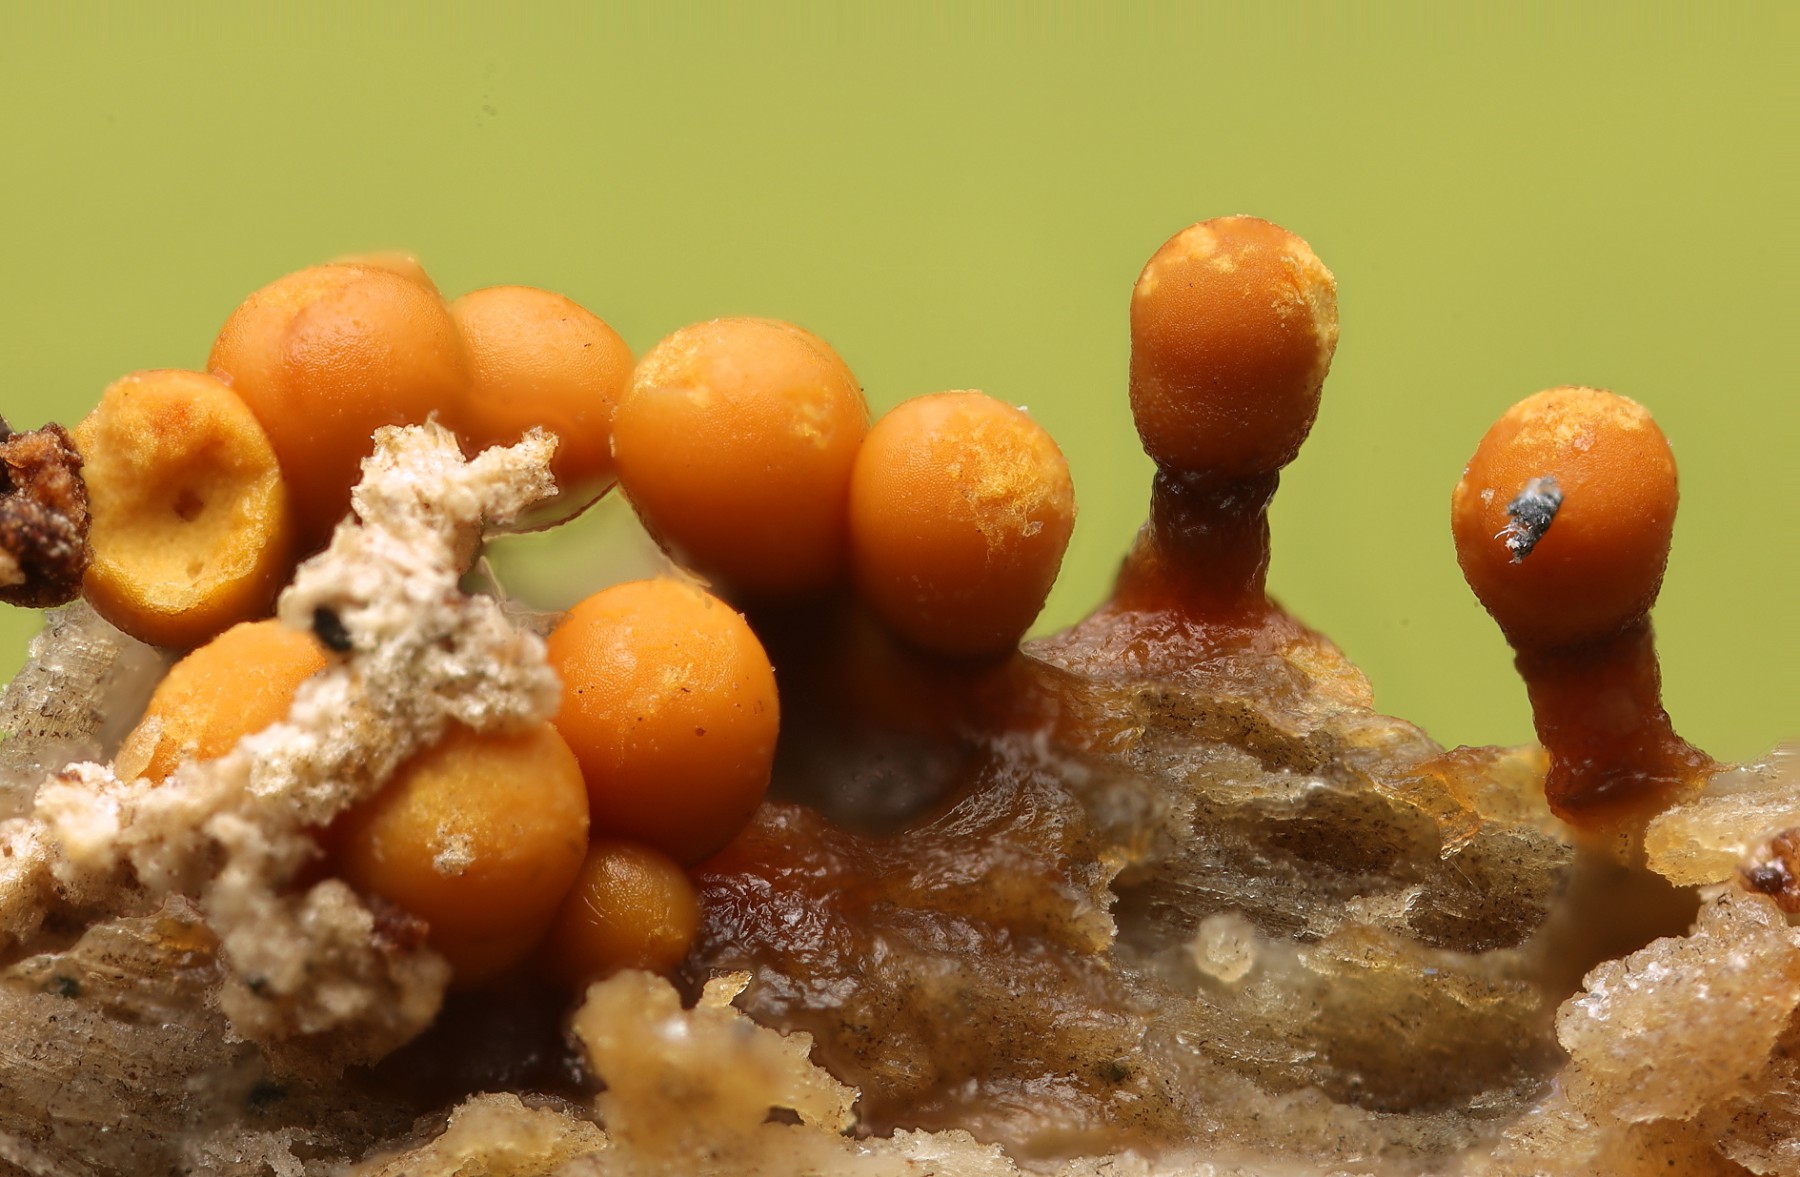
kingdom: Protozoa
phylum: Mycetozoa
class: Myxomycetes
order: Trichiales
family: Trichiaceae
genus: Trichia
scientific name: Trichia varia
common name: foranderlig hårbold
